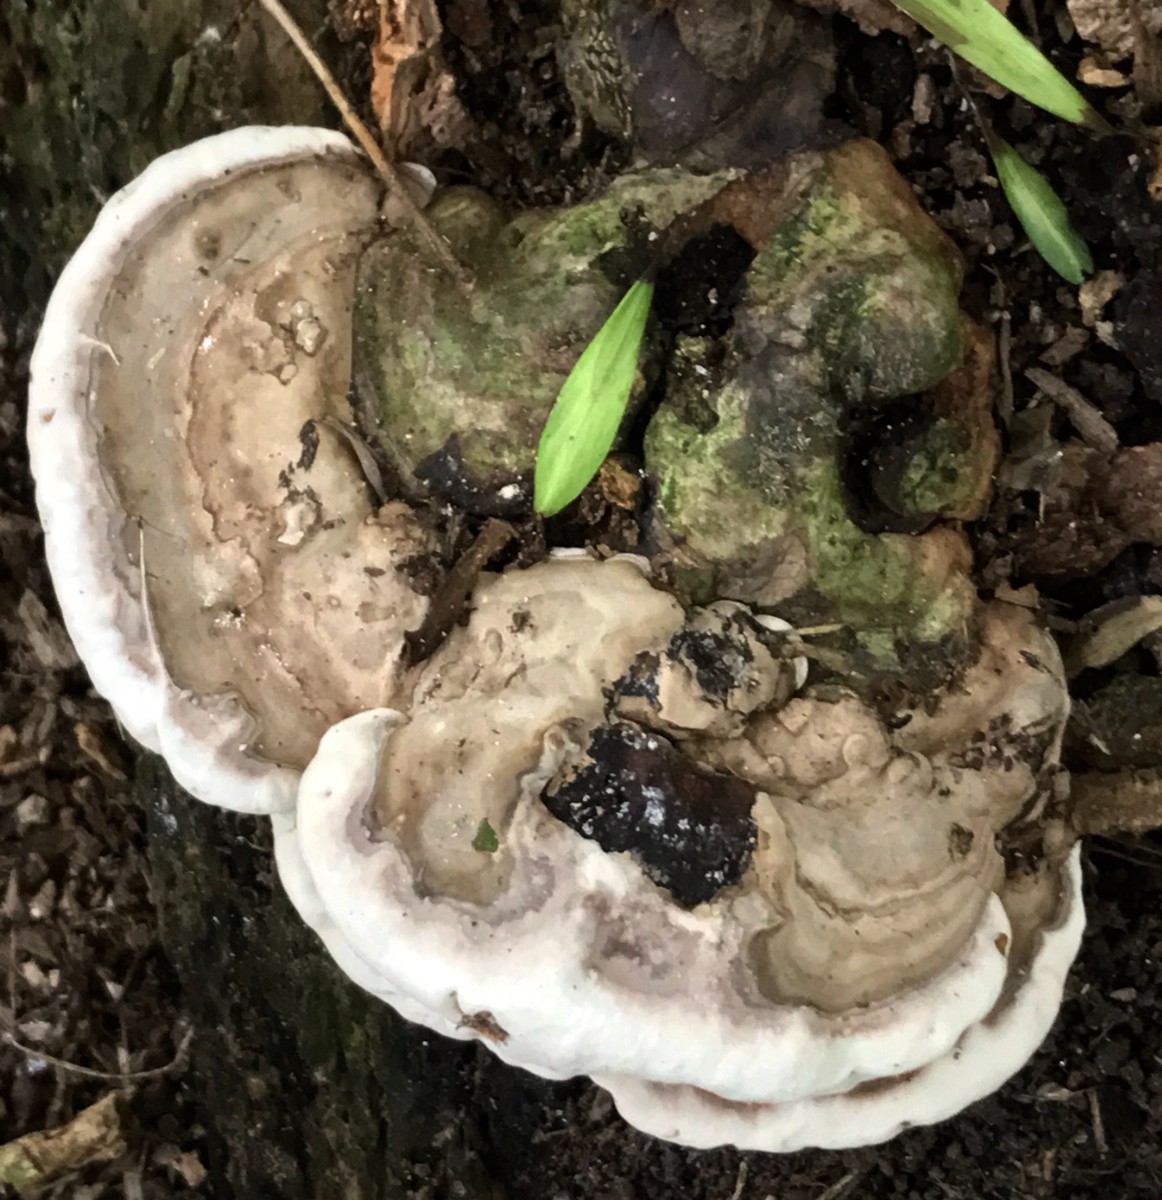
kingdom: Fungi
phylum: Basidiomycota
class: Agaricomycetes
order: Polyporales
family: Polyporaceae
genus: Ganoderma
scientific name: Ganoderma applanatum
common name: flad lakporesvamp
